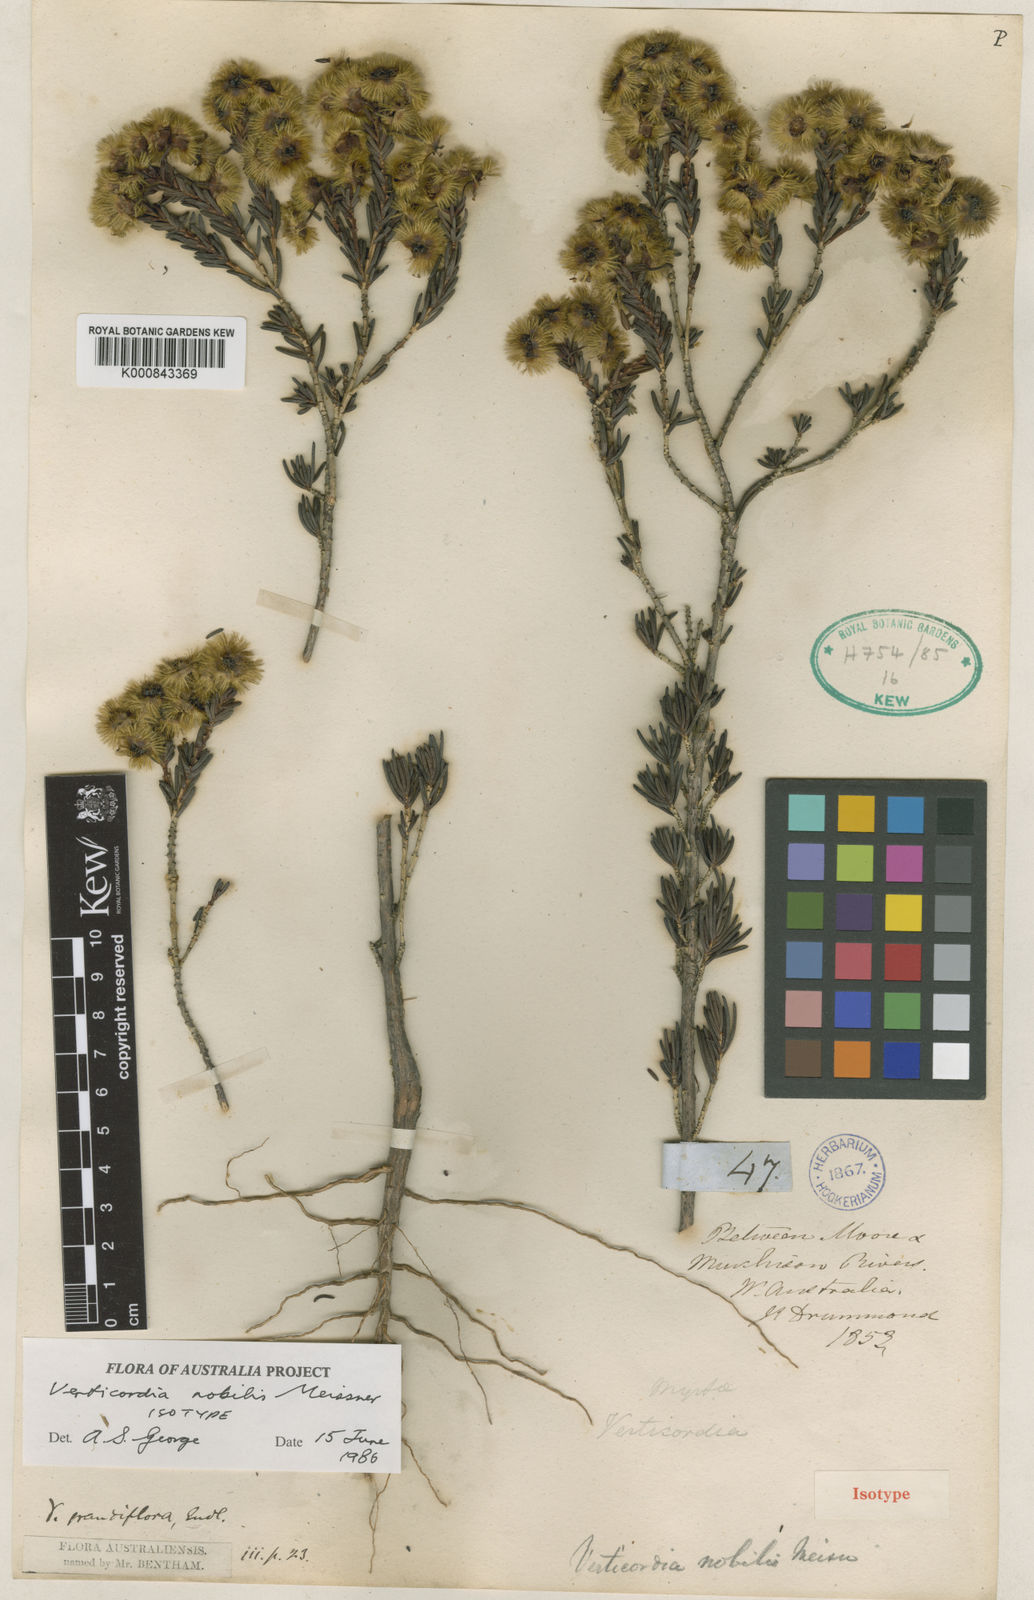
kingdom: Plantae
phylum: Tracheophyta
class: Magnoliopsida
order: Myrtales
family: Myrtaceae
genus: Verticordia
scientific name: Verticordia nobilis
